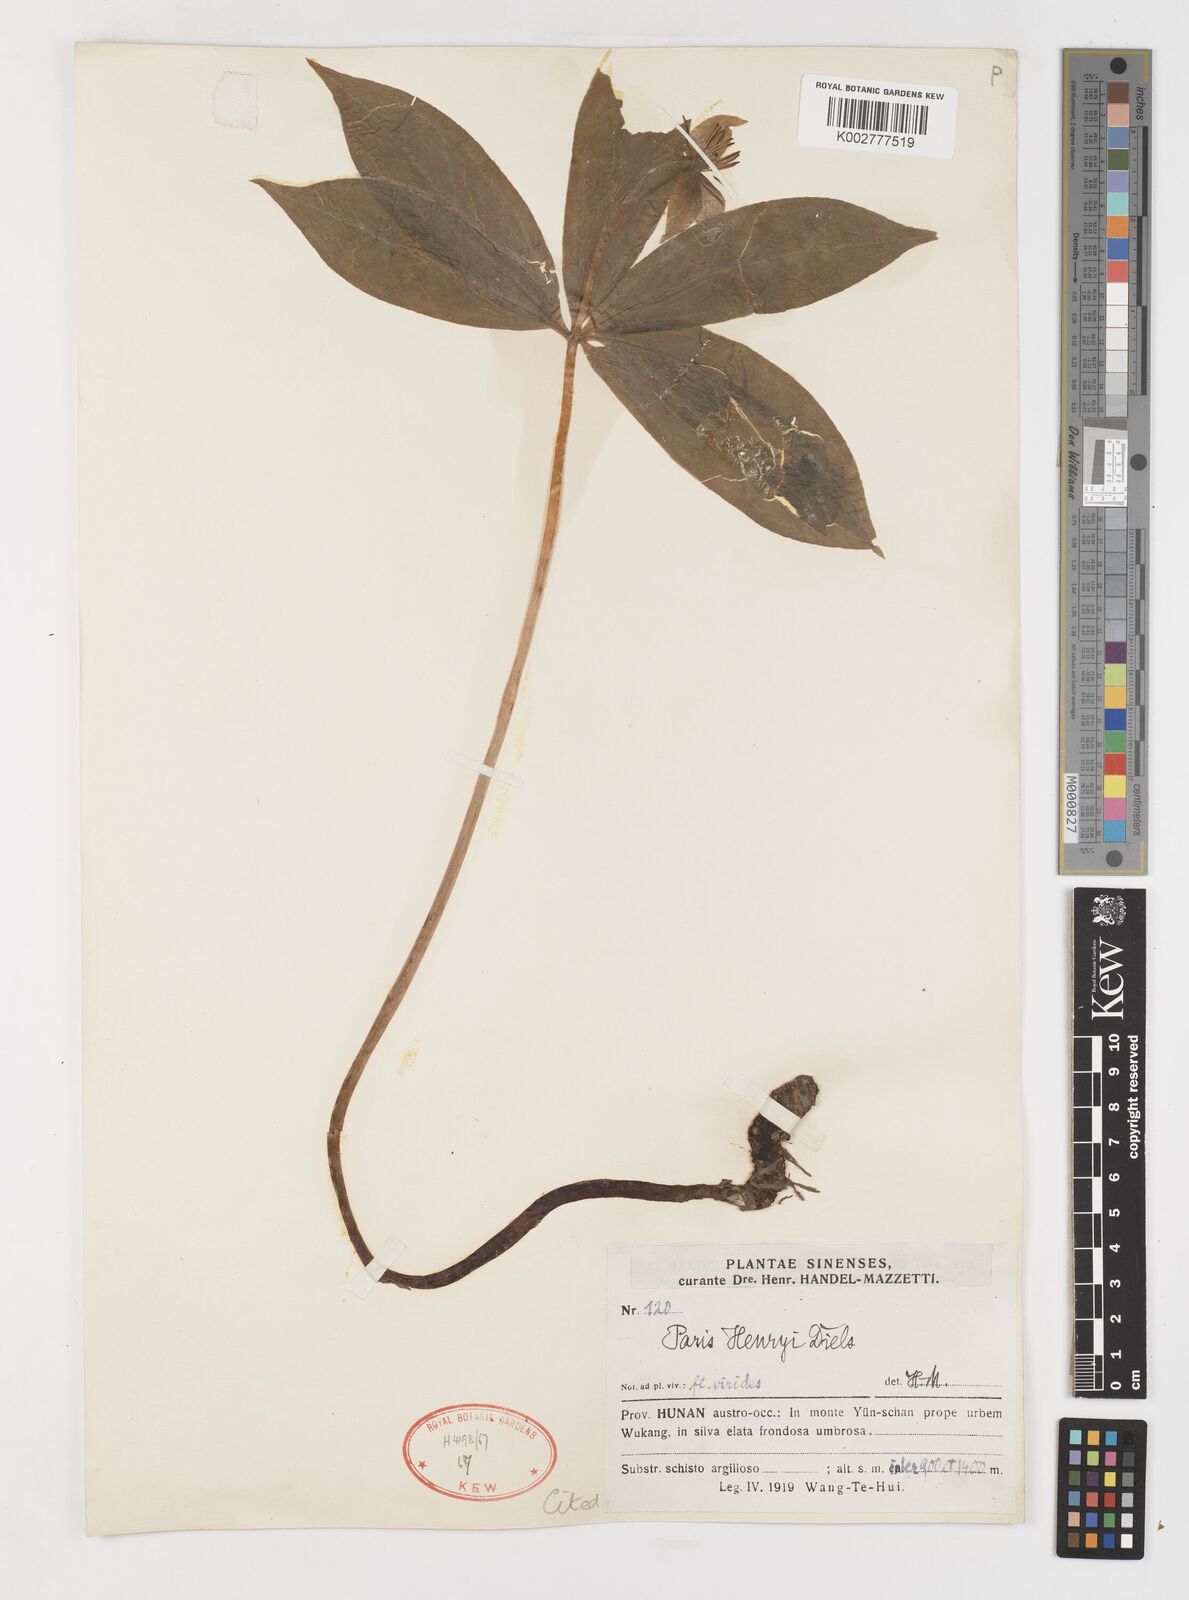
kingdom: Plantae
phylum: Tracheophyta
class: Liliopsida
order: Liliales
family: Melanthiaceae
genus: Paris
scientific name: Paris delavayi
